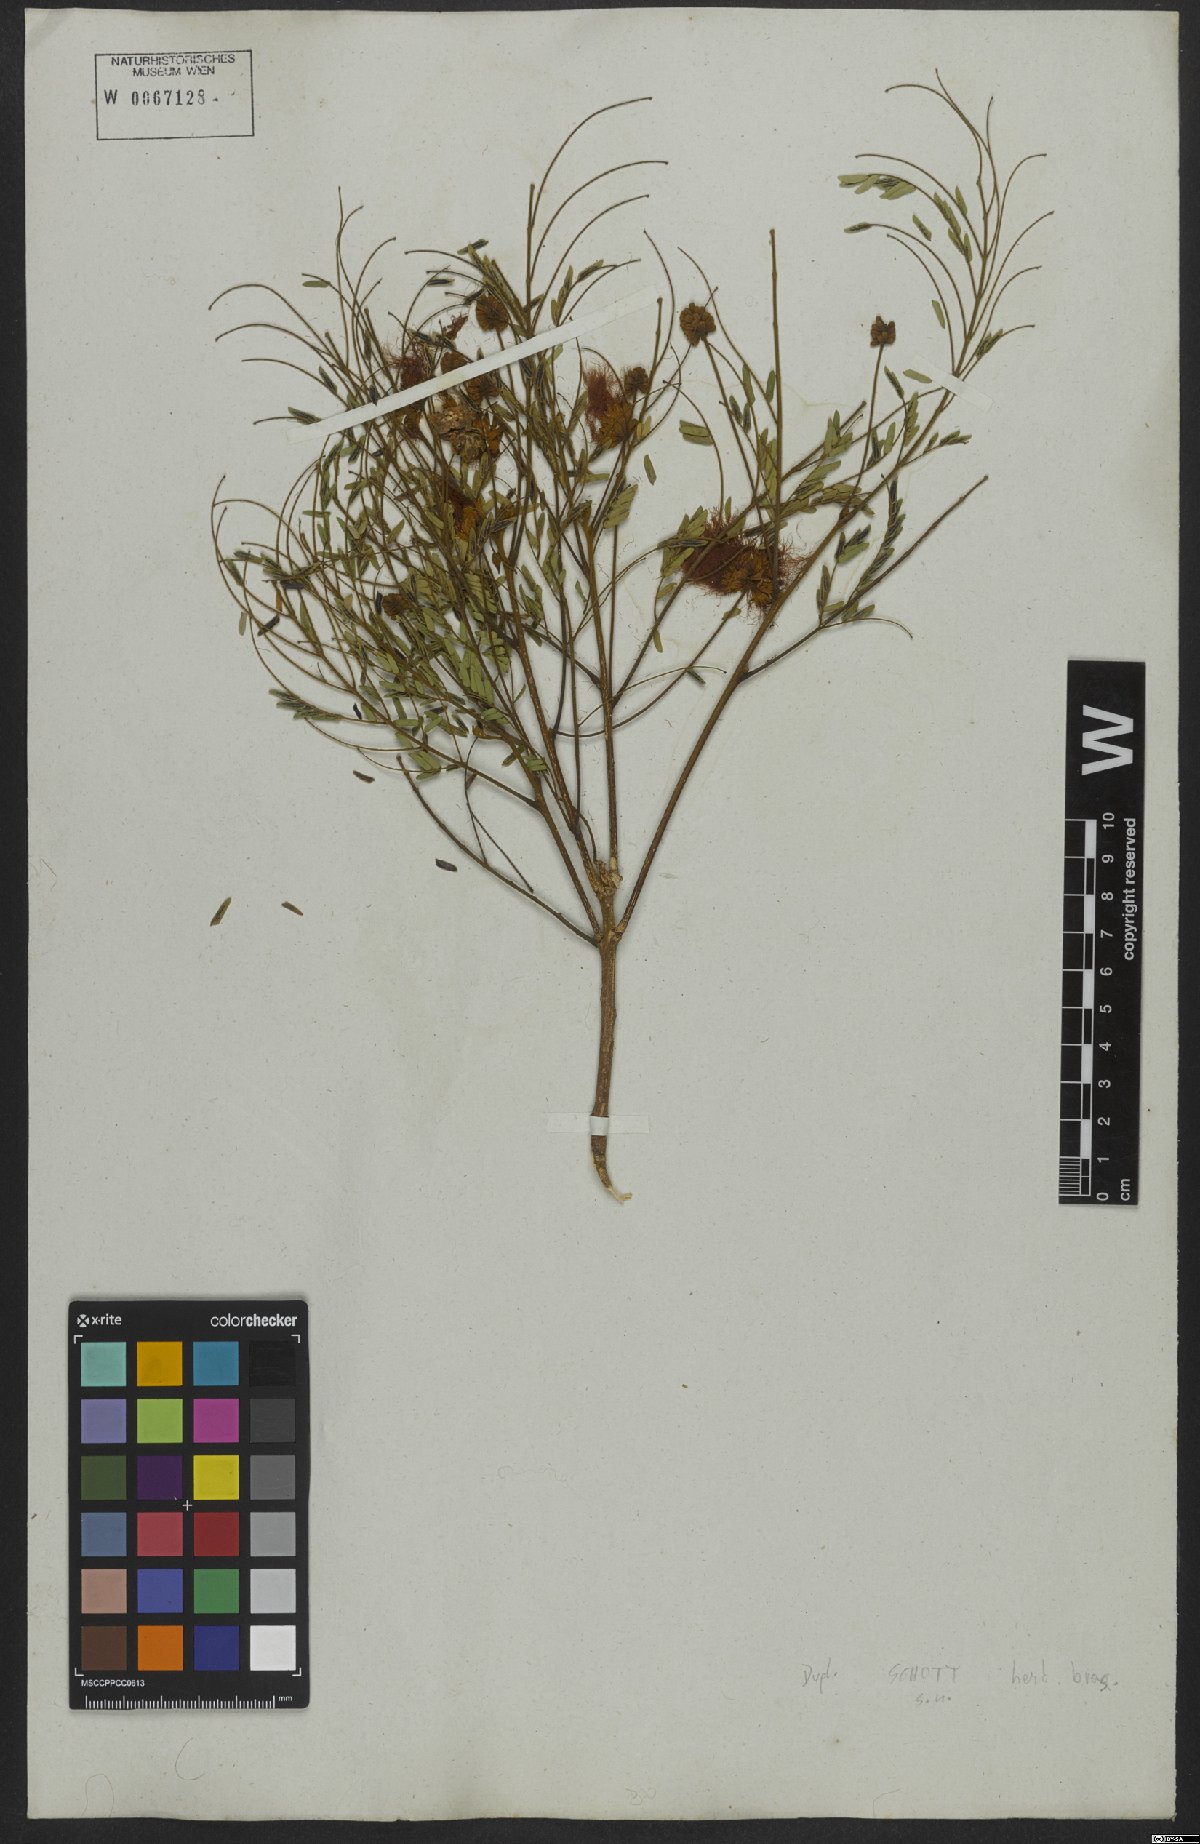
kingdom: Plantae
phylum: Tracheophyta
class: Magnoliopsida
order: Fabales
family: Fabaceae
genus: Jupunba
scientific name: Jupunba langsdorffii
